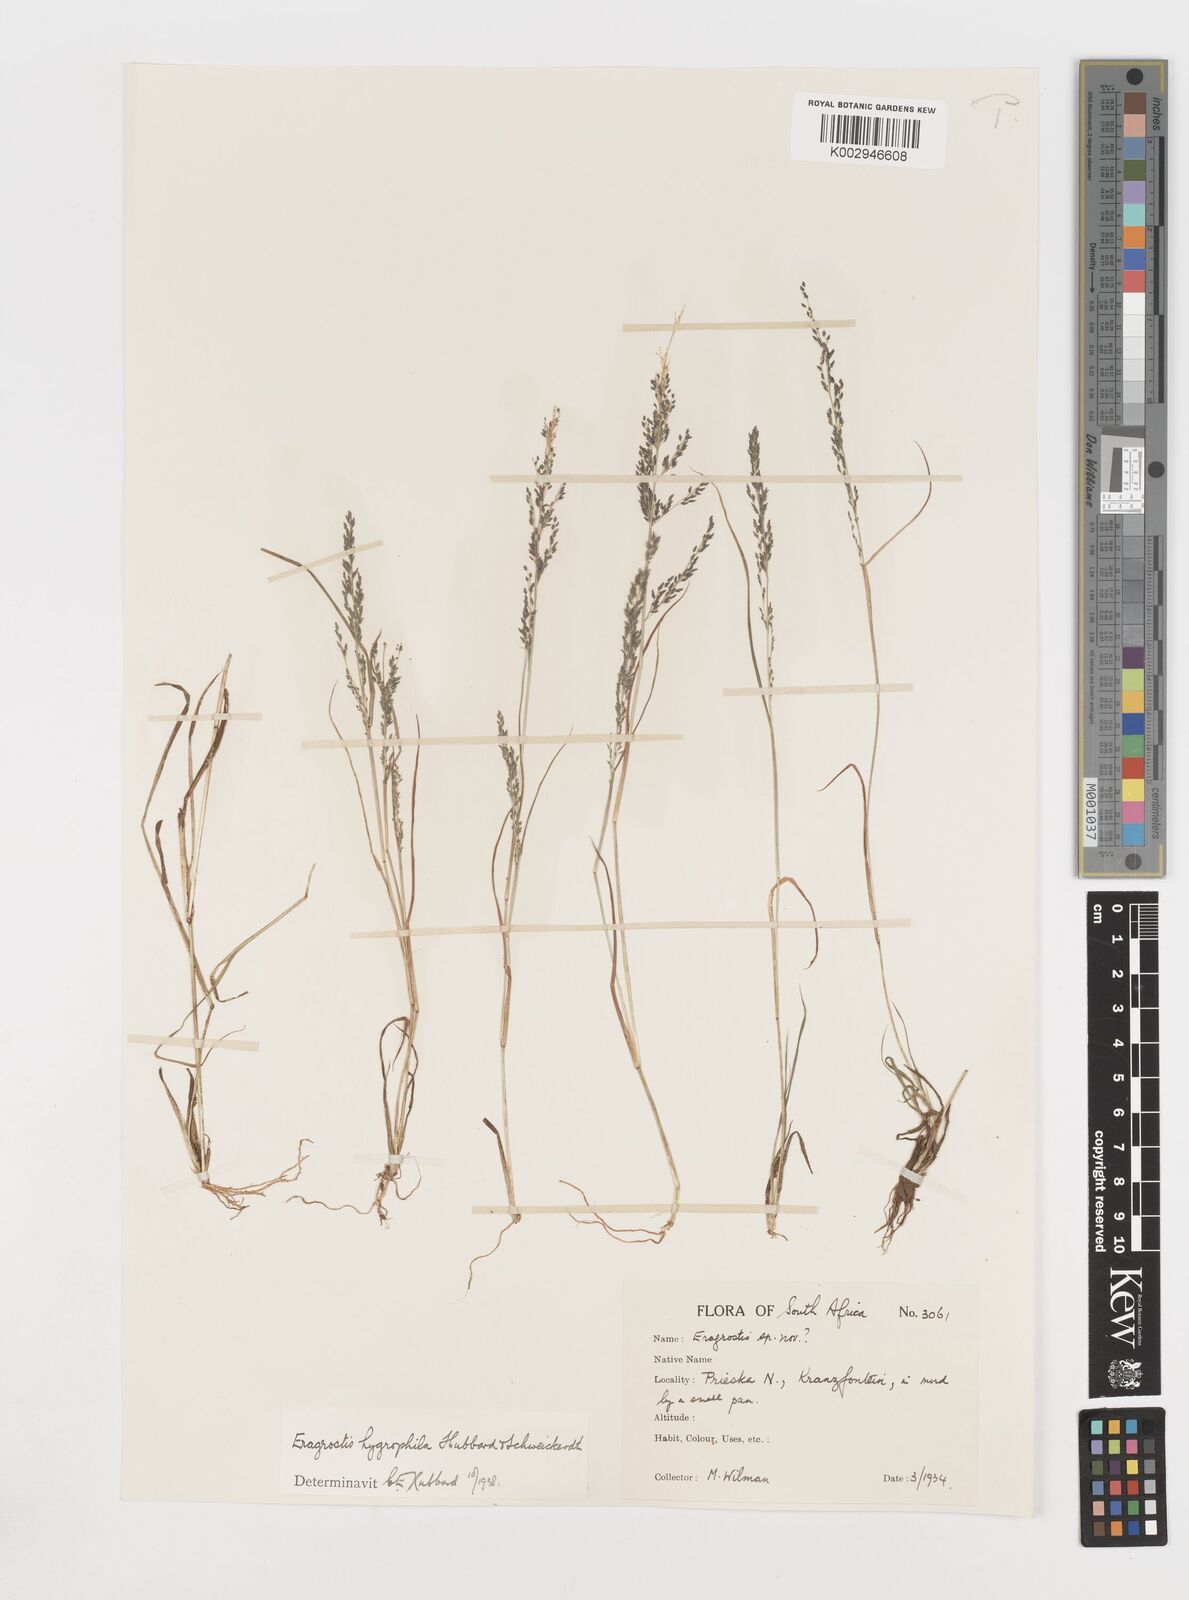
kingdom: Plantae
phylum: Tracheophyta
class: Liliopsida
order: Poales
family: Poaceae
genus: Eragrostis
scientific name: Eragrostis homomalla
